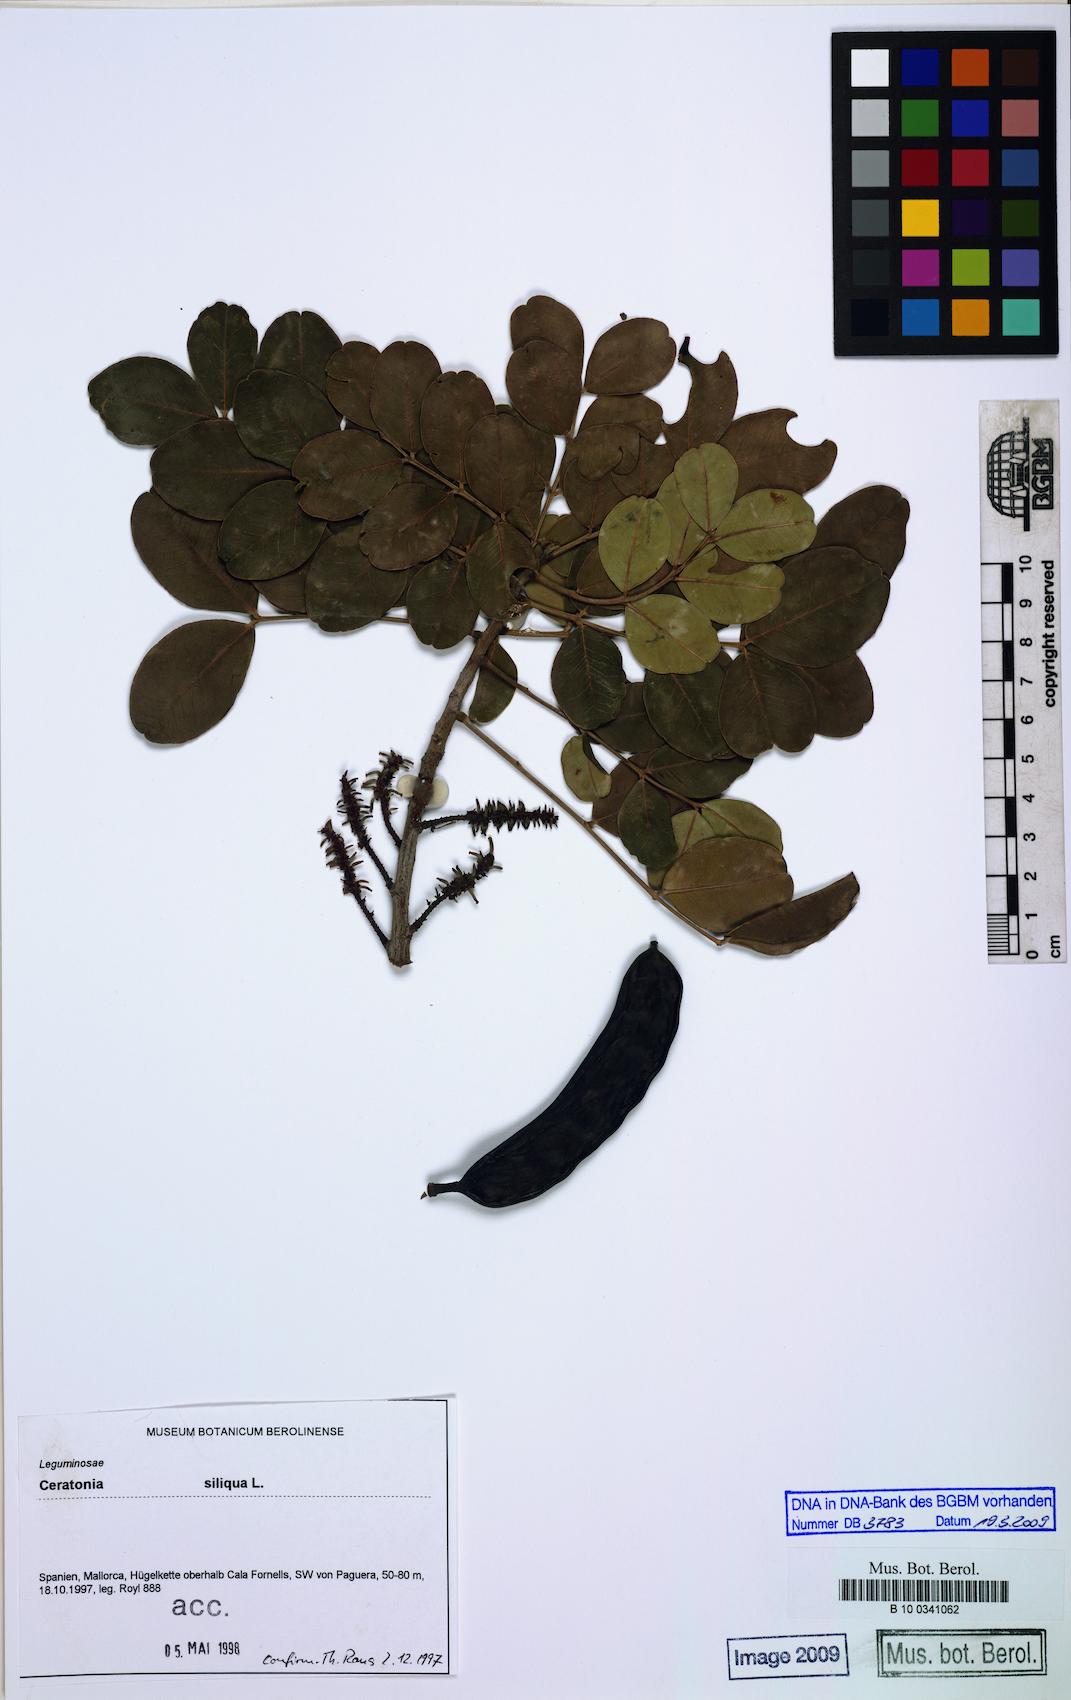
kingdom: Plantae
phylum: Tracheophyta
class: Magnoliopsida
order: Fabales
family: Fabaceae
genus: Ceratonia
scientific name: Ceratonia siliqua
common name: Carob
